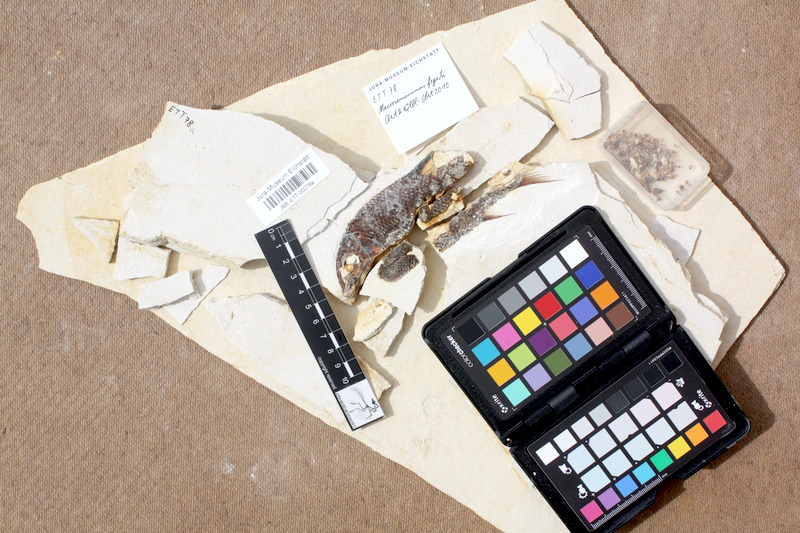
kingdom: Animalia
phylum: Chordata
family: Callipurbeckiidae
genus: Macrosemimimus
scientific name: Macrosemimimus fegerti
